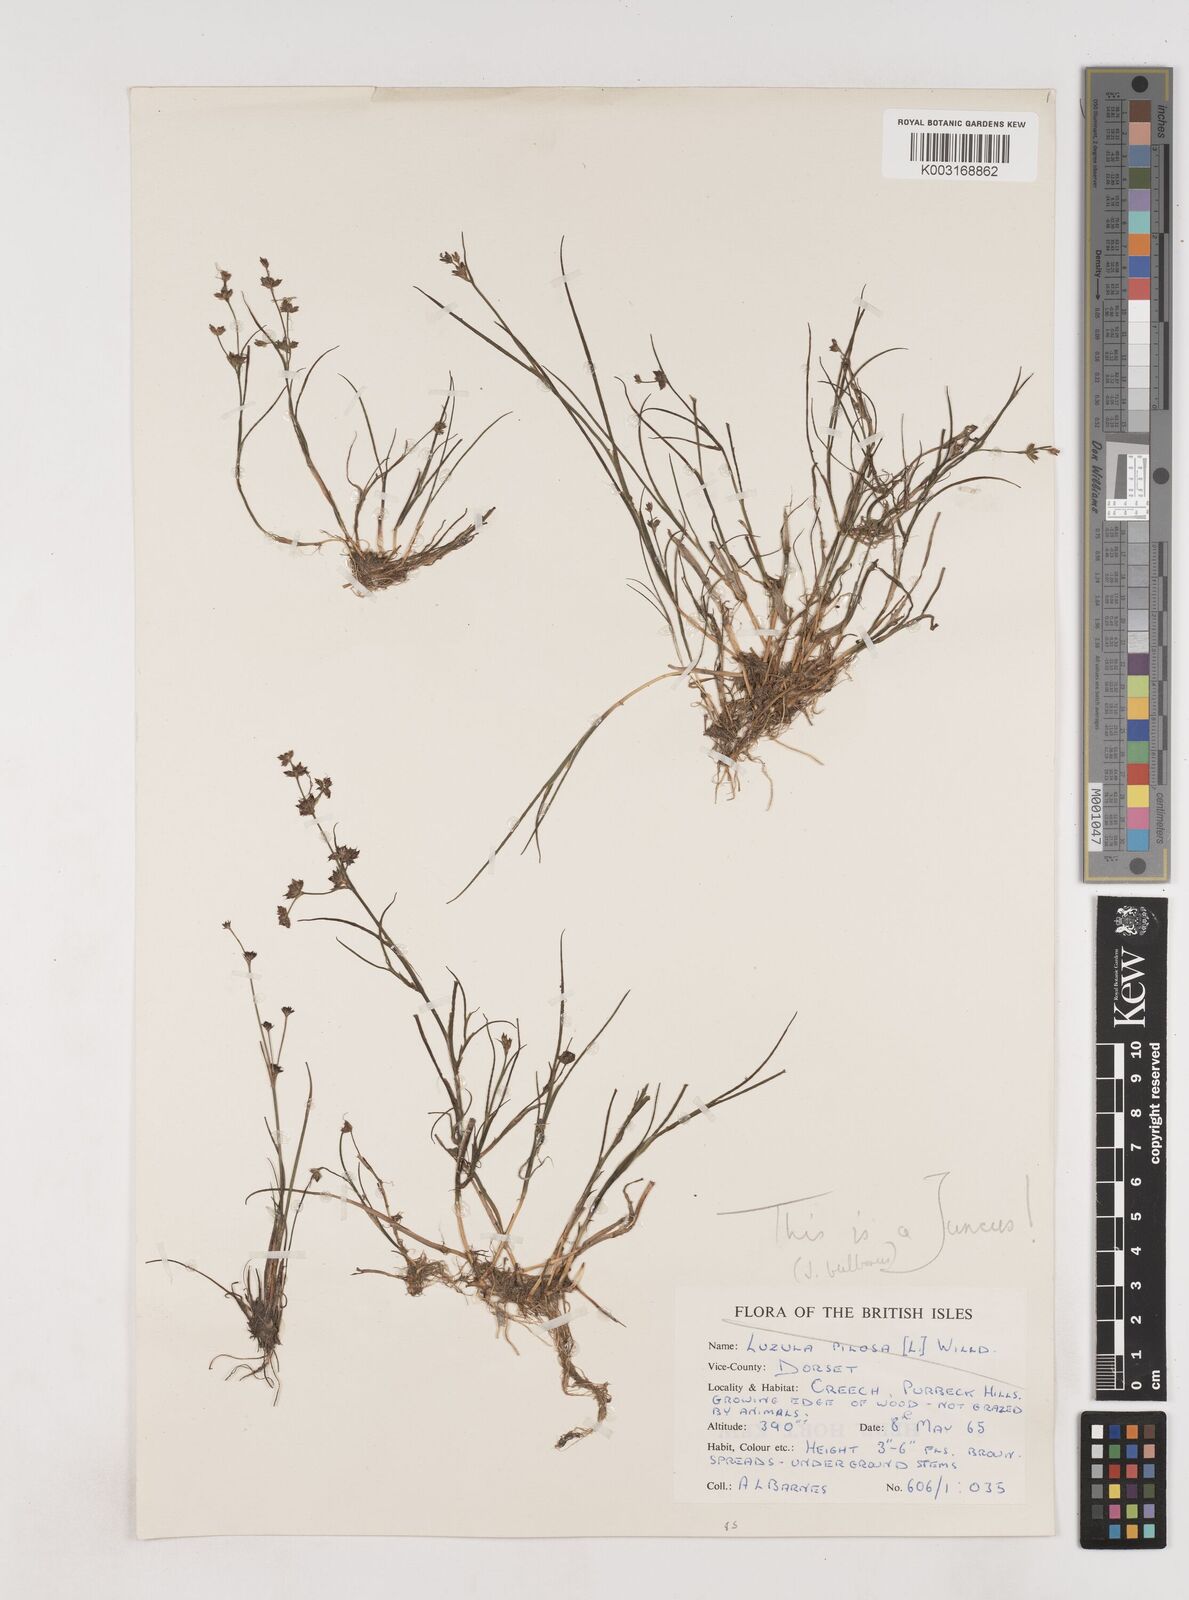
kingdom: Plantae
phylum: Tracheophyta
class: Liliopsida
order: Poales
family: Juncaceae
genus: Juncus
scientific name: Juncus bulbosus
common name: Bulbous rush
